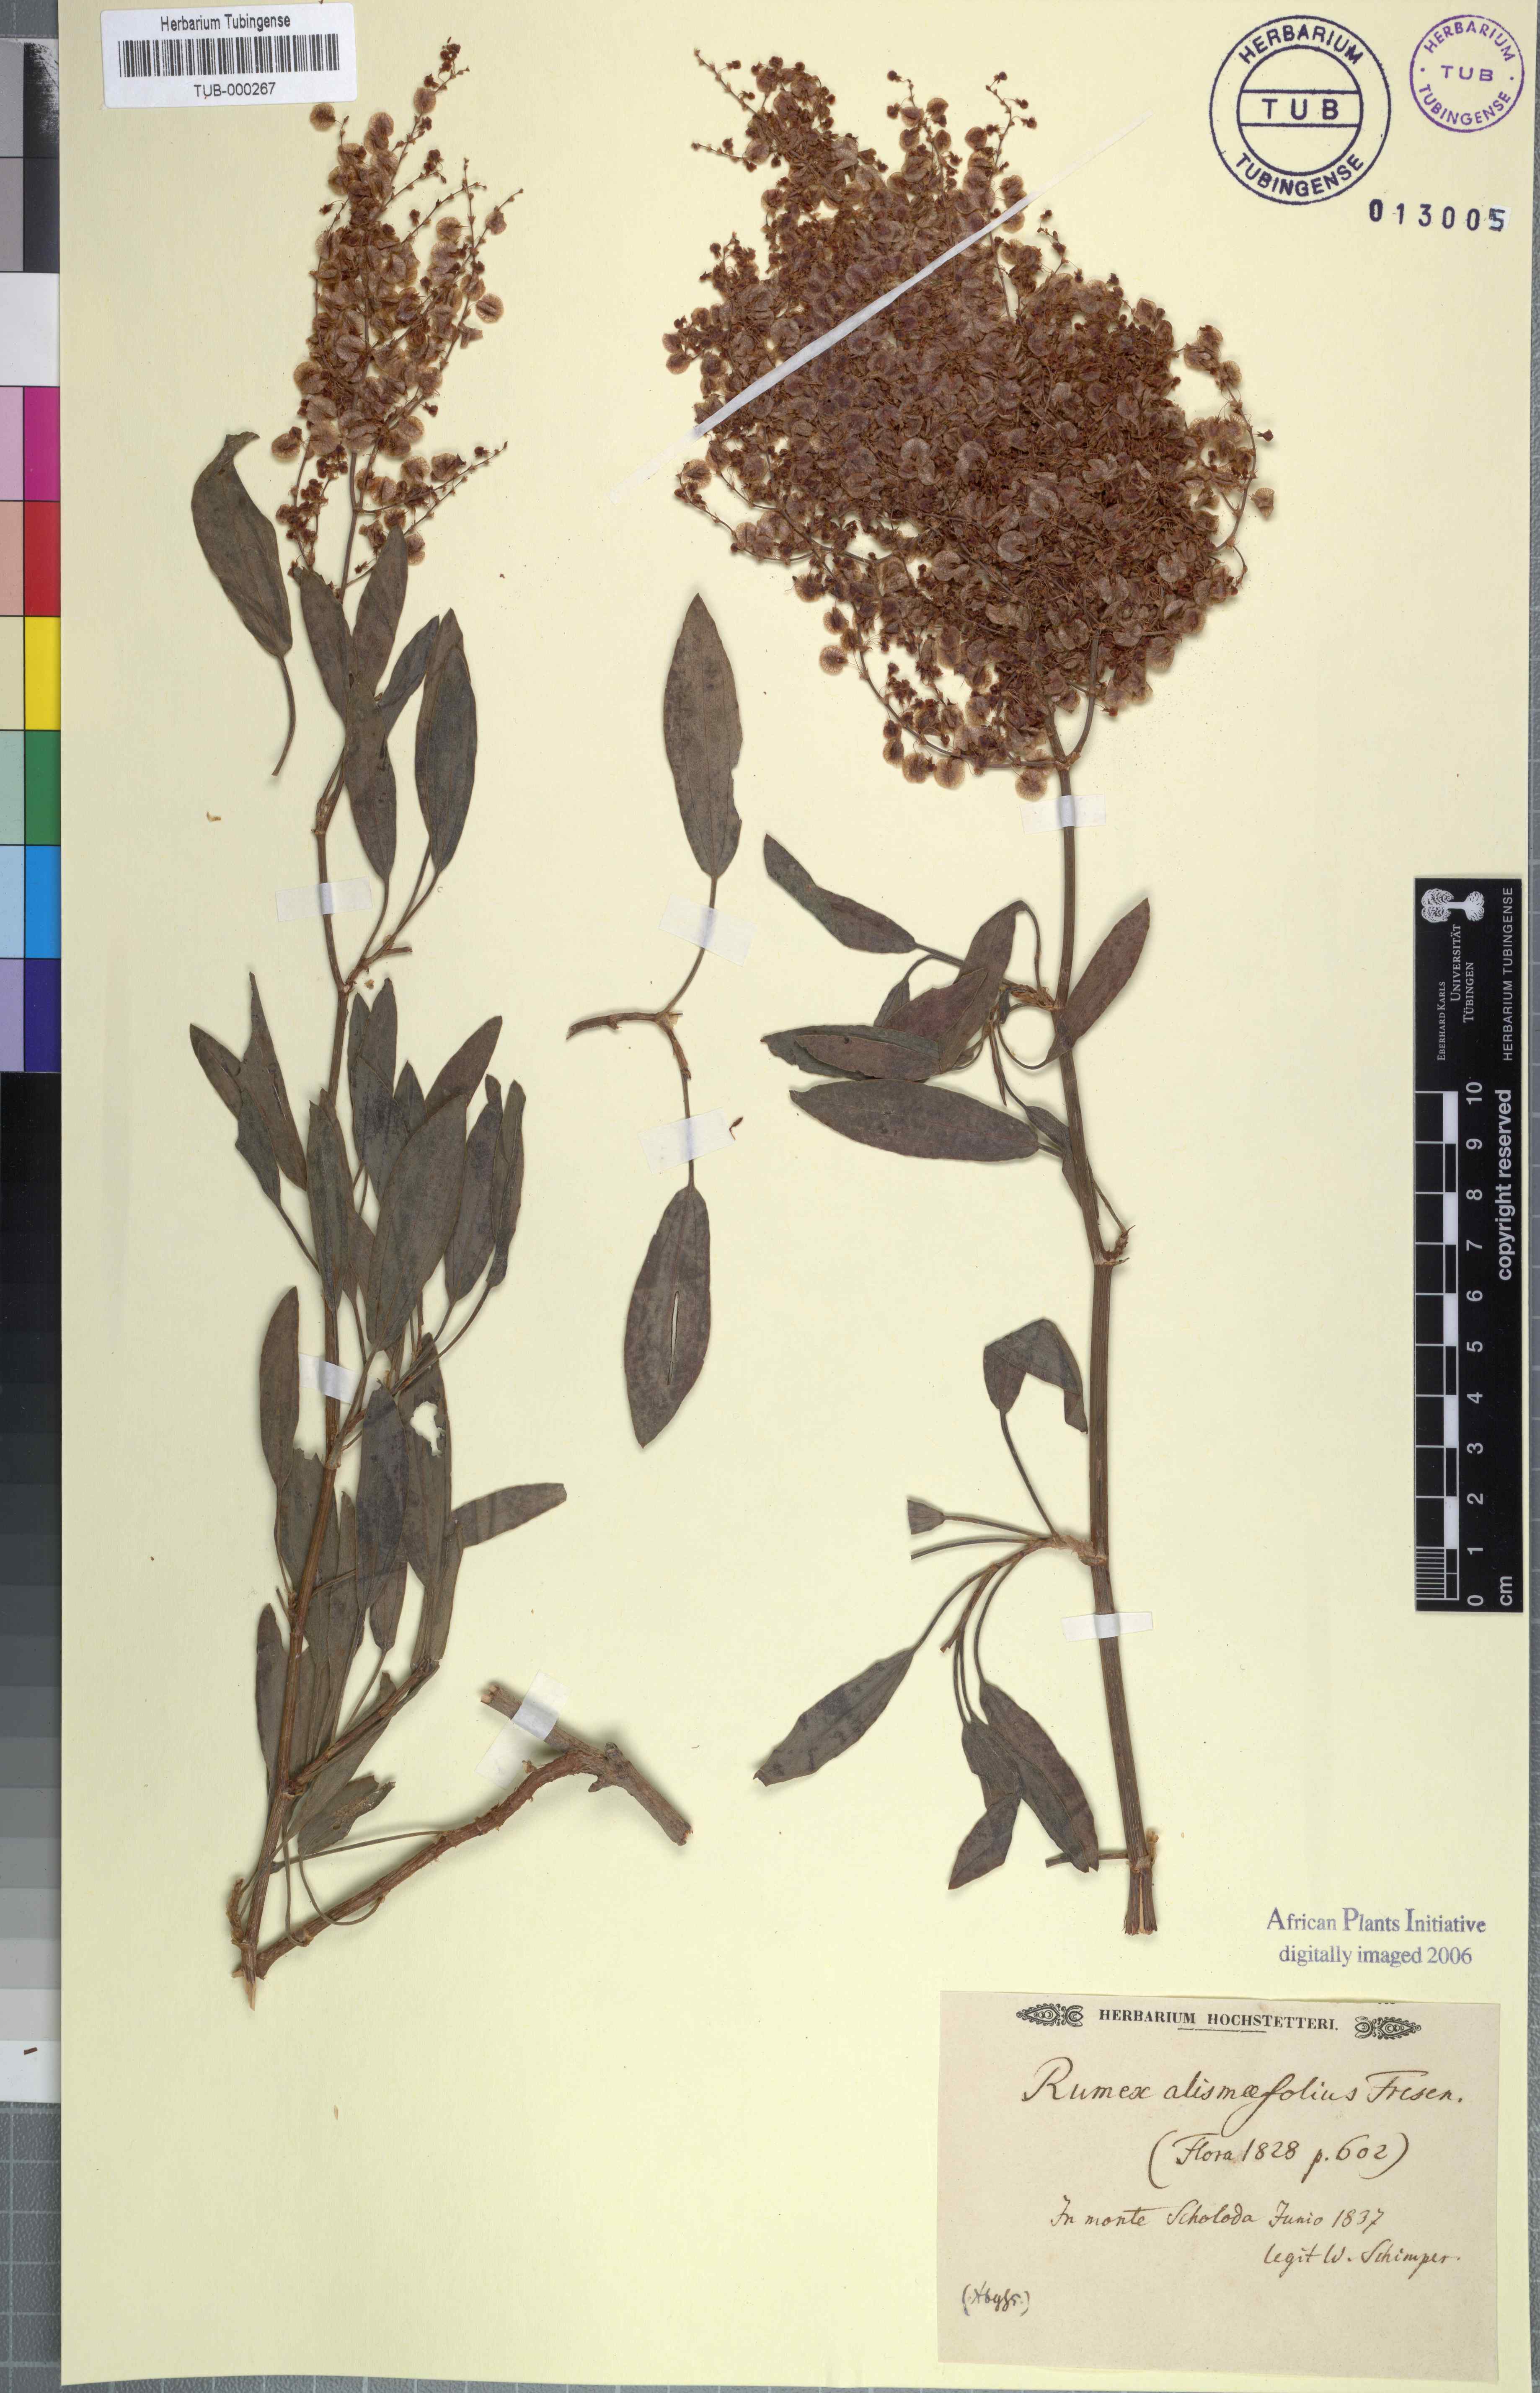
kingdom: Plantae
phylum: Tracheophyta
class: Magnoliopsida
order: Caryophyllales
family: Polygonaceae
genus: Rumex
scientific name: Rumex nervosus
